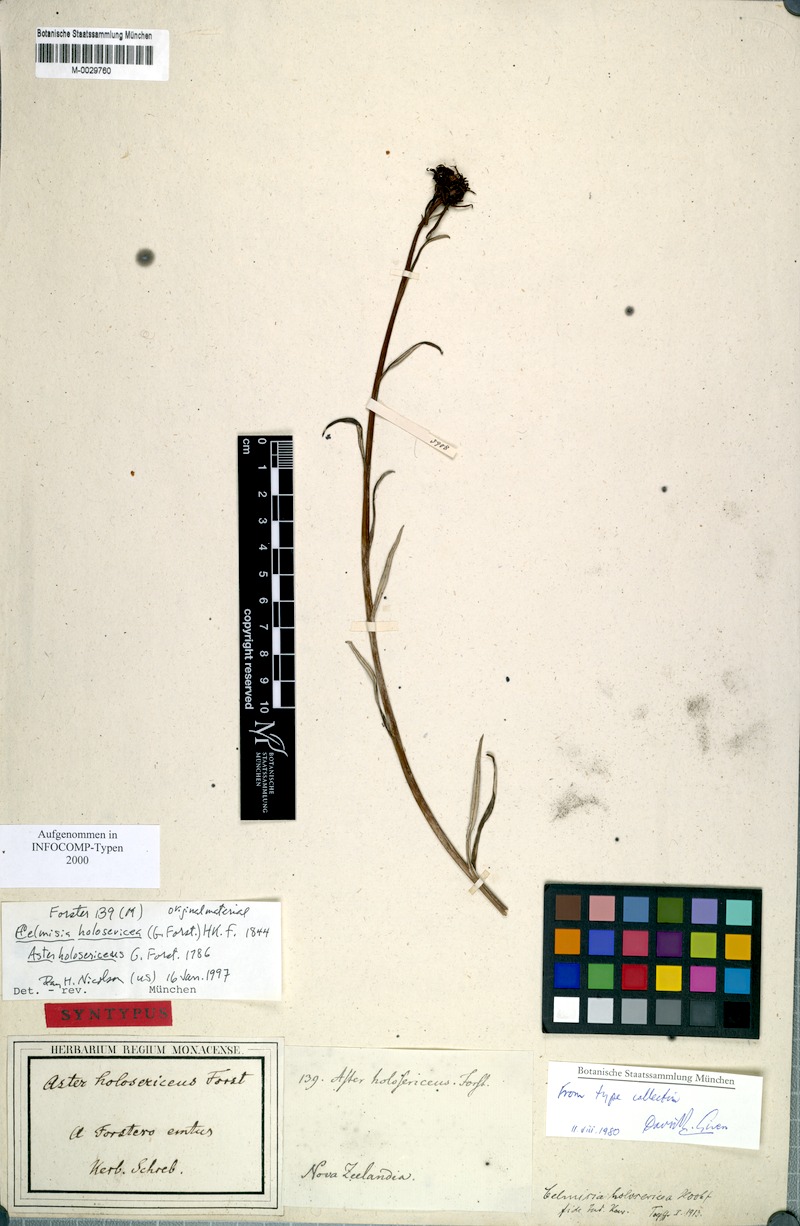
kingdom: Plantae
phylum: Tracheophyta
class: Magnoliopsida
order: Asterales
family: Asteraceae
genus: Celmisia
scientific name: Celmisia holosericea
